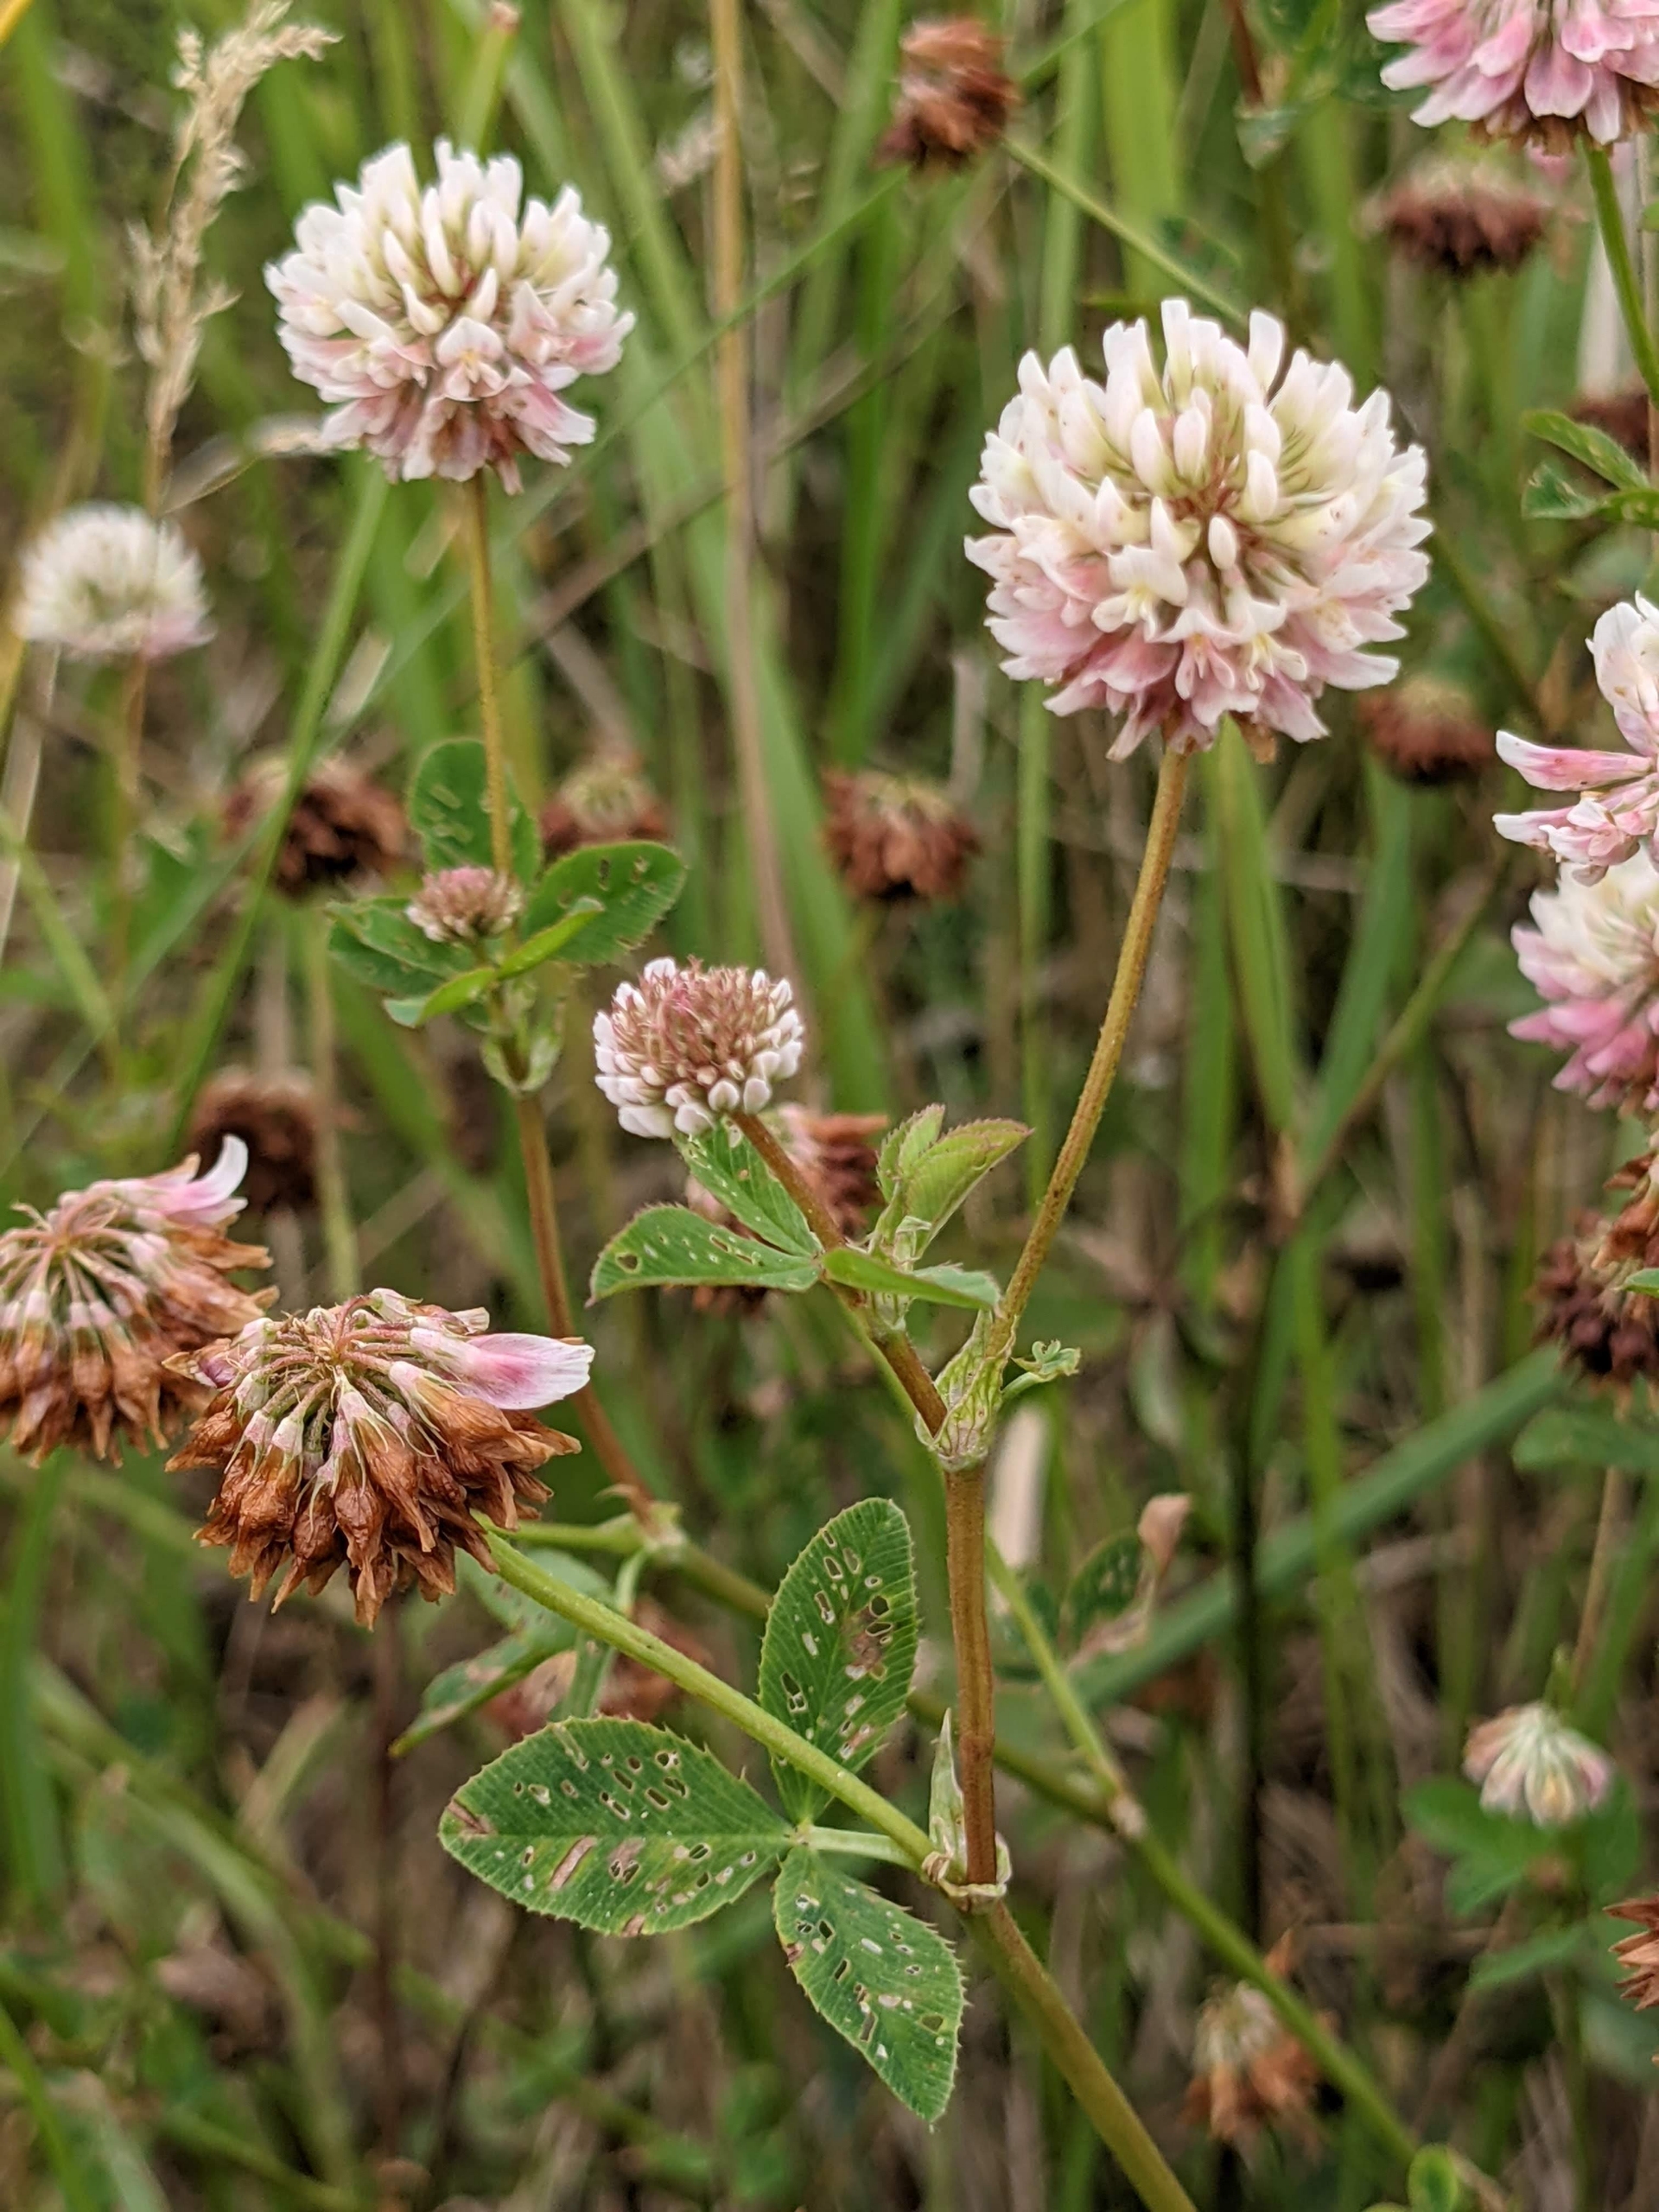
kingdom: Plantae
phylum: Tracheophyta
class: Magnoliopsida
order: Fabales
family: Fabaceae
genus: Trifolium
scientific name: Trifolium hybridum
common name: Alsike-kløver
